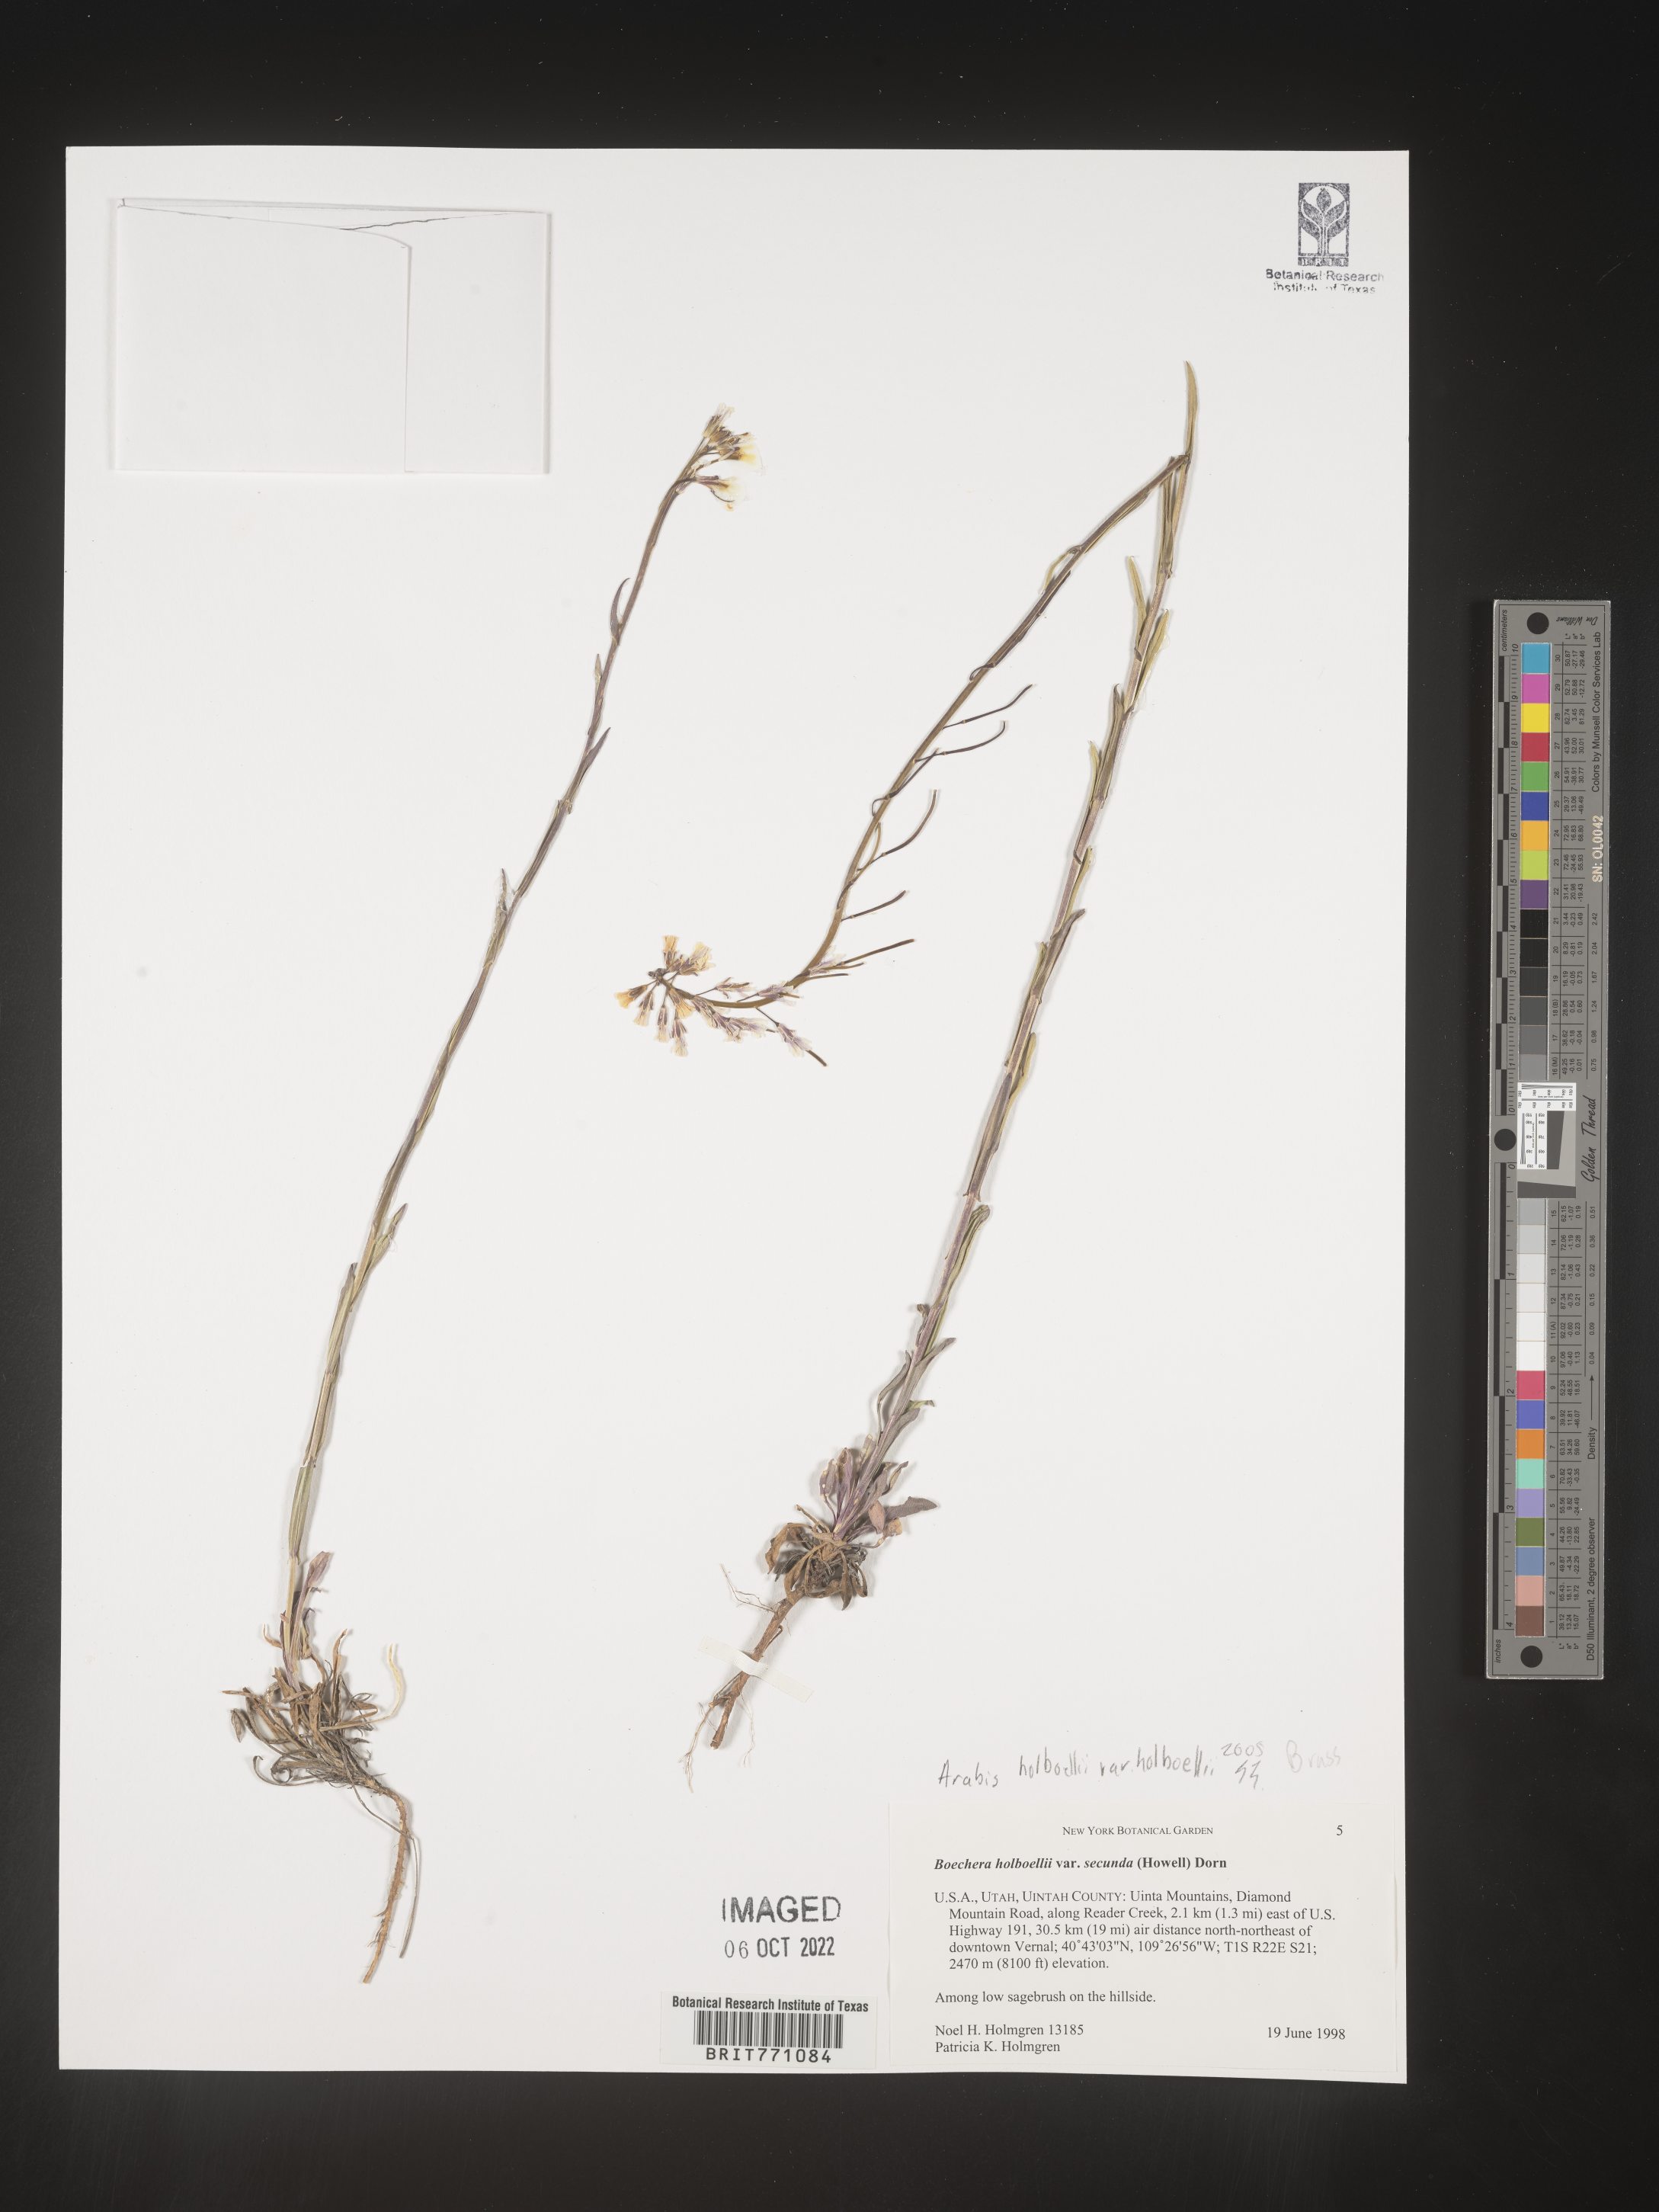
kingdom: Plantae
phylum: Tracheophyta
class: Magnoliopsida
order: Brassicales
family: Brassicaceae
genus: Boechera
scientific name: Boechera holboellii
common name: Holboell's rockcress
